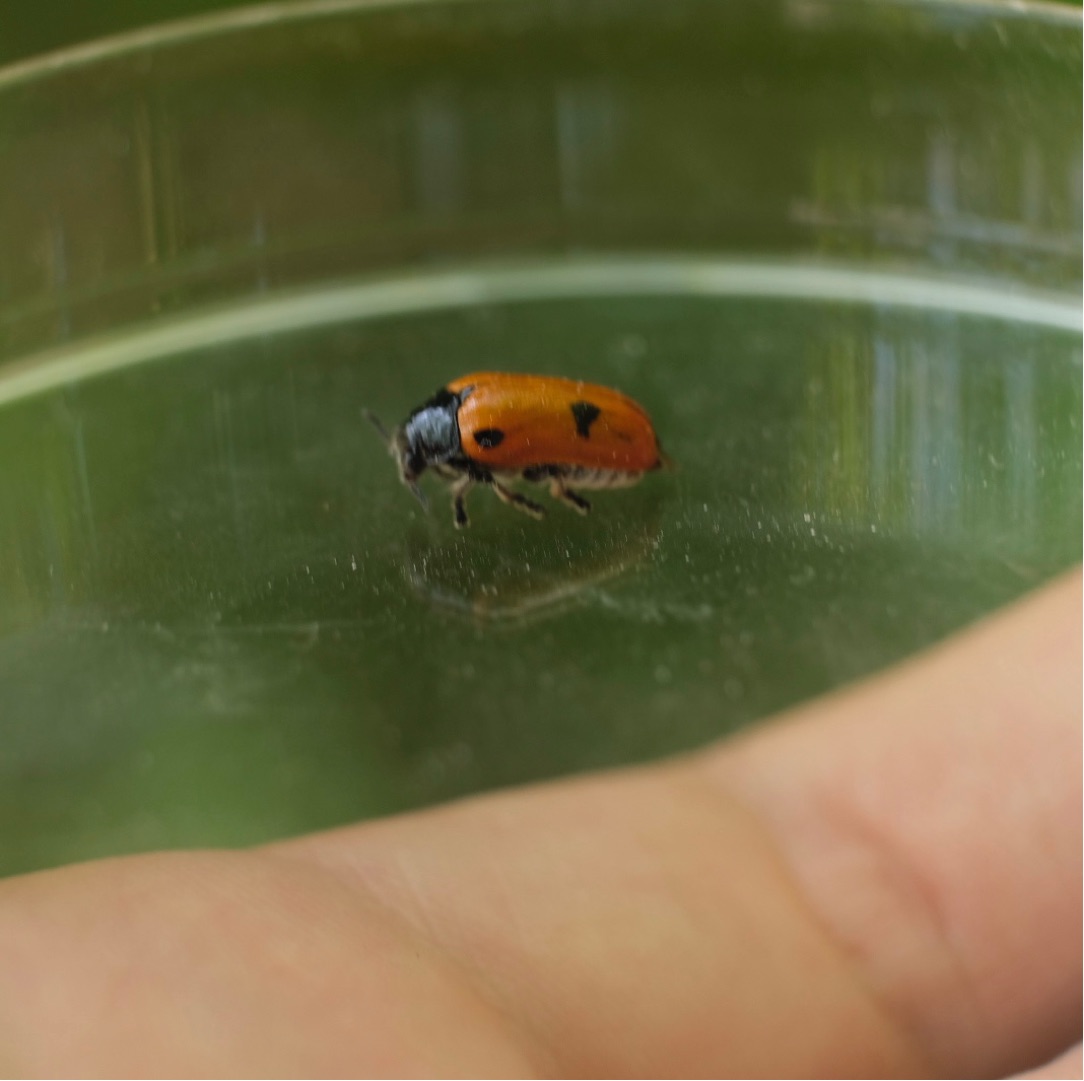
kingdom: Animalia
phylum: Arthropoda
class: Insecta
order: Coleoptera
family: Chrysomelidae
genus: Clytra
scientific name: Clytra quadripunctata
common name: Myrebladbille
